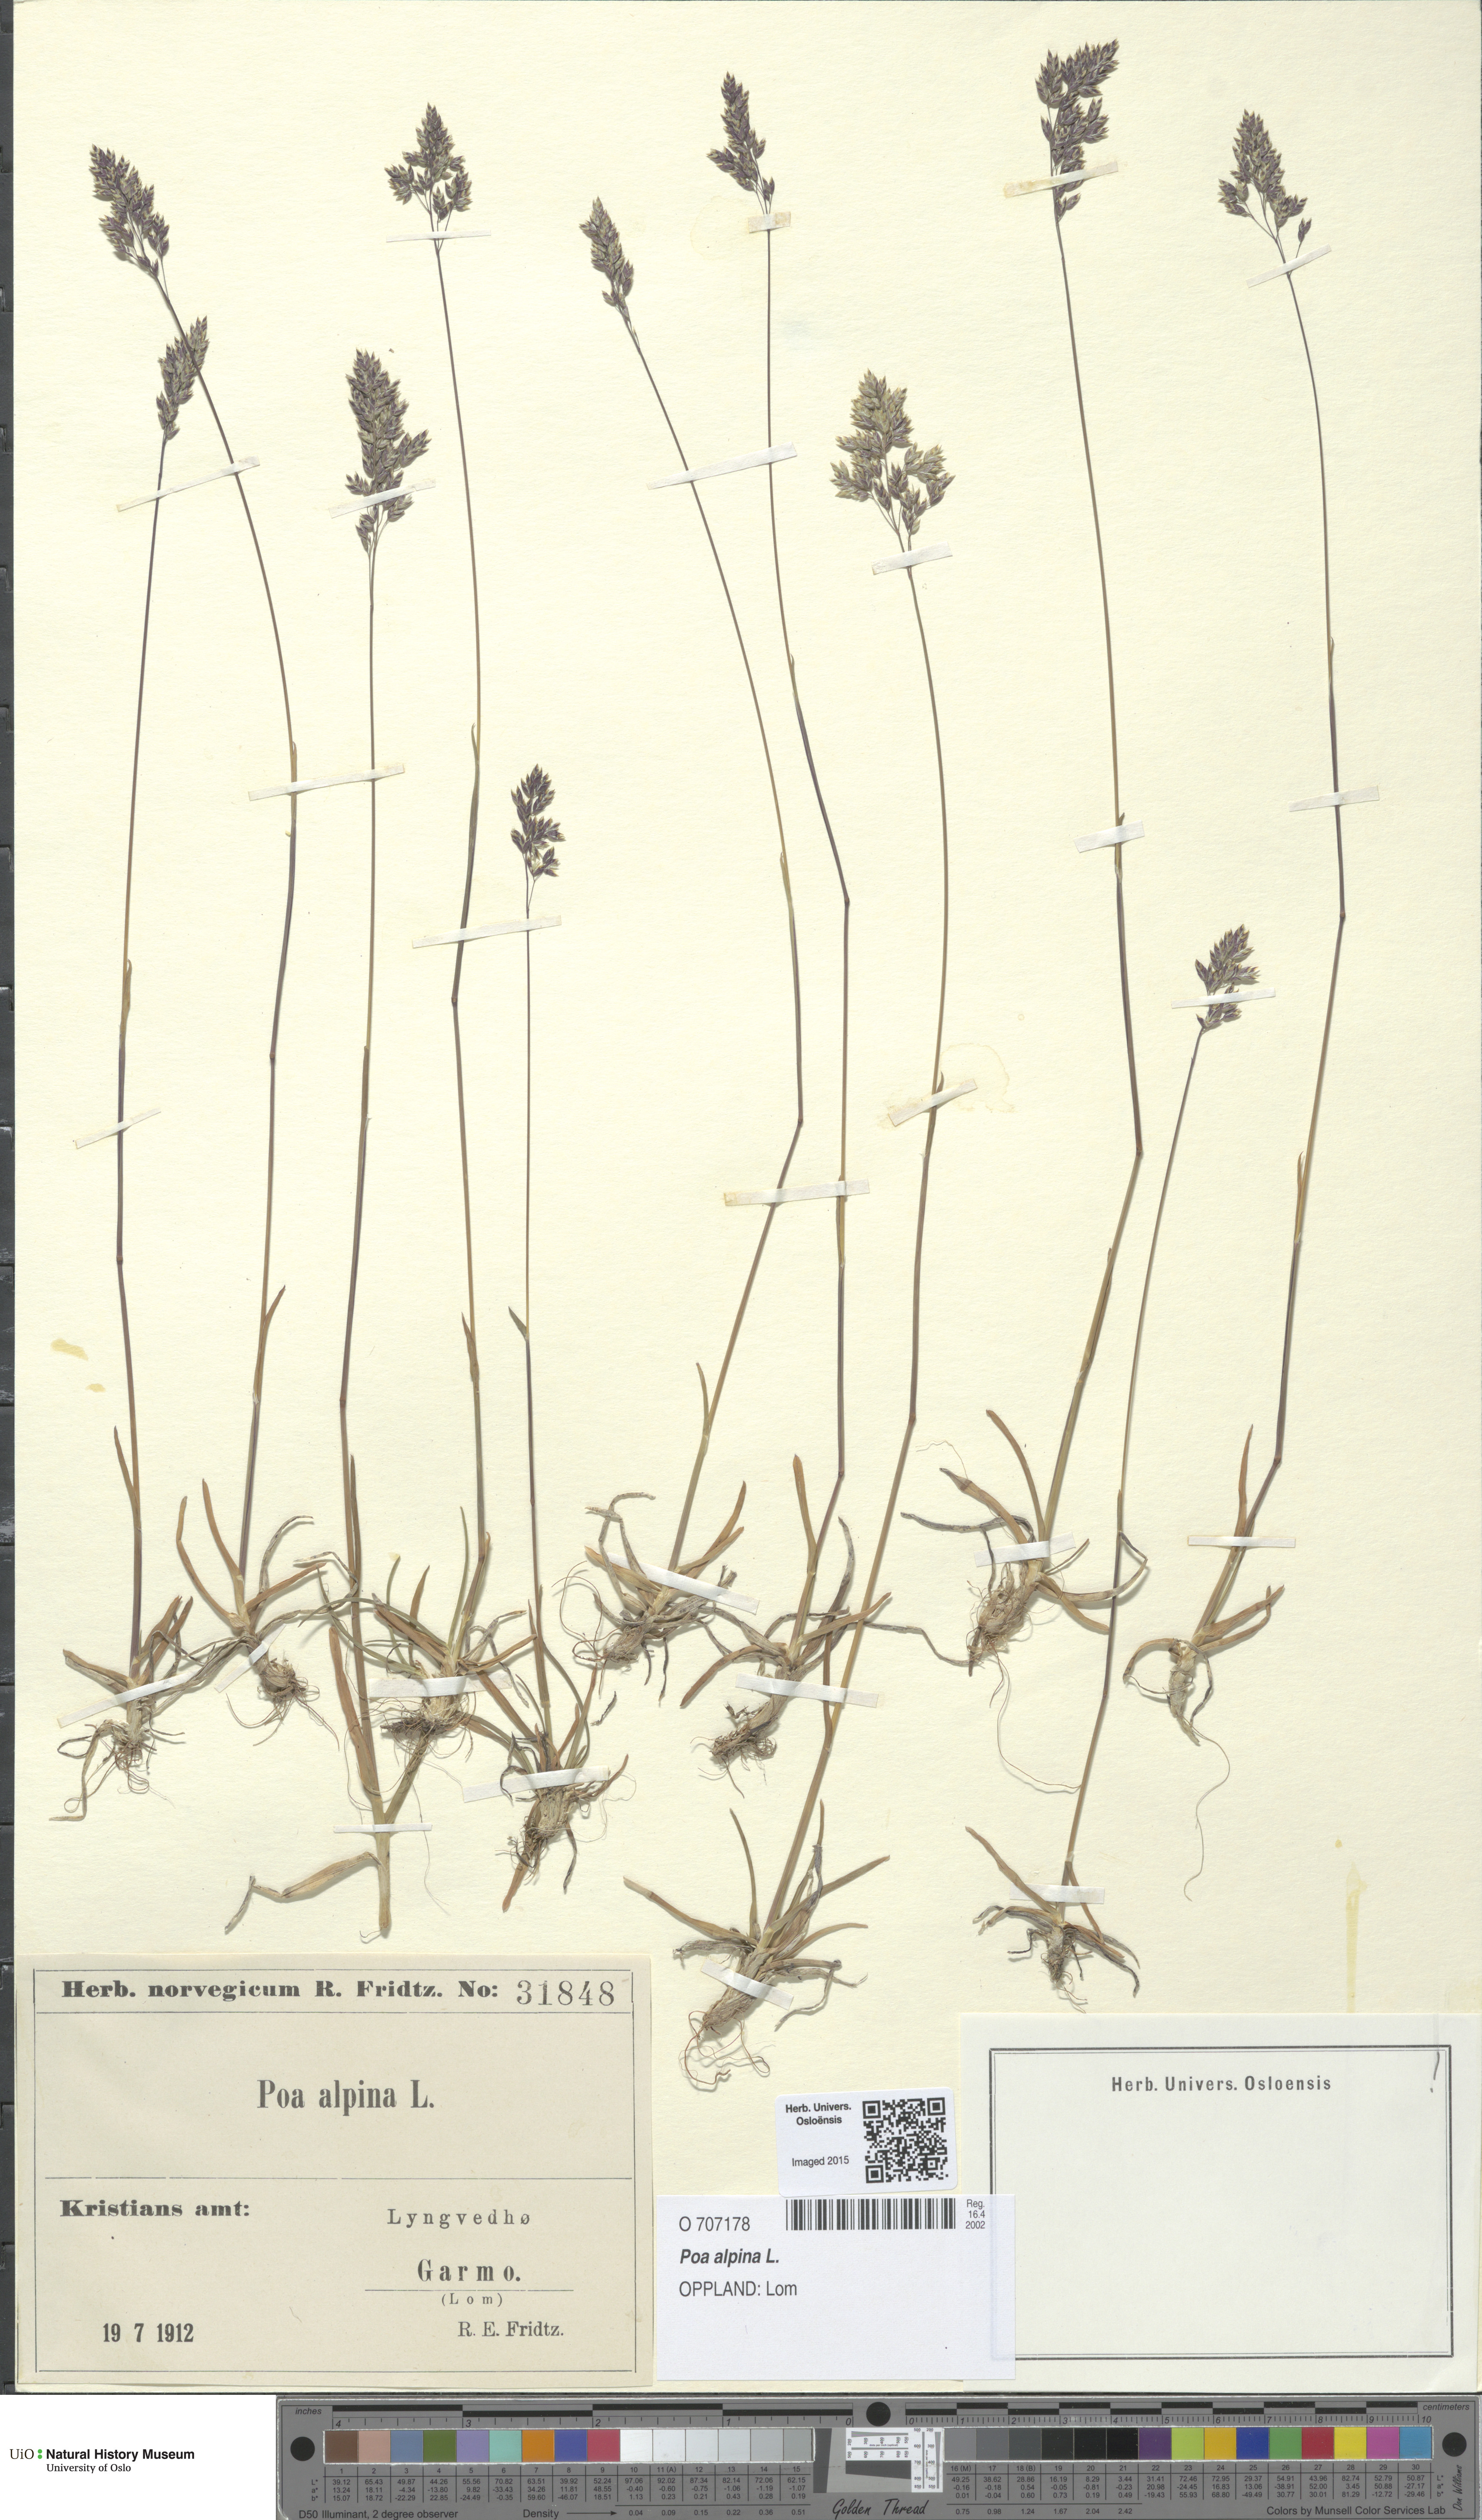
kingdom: Plantae
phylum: Tracheophyta
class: Liliopsida
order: Poales
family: Poaceae
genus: Poa
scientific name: Poa alpina
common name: Alpine bluegrass
